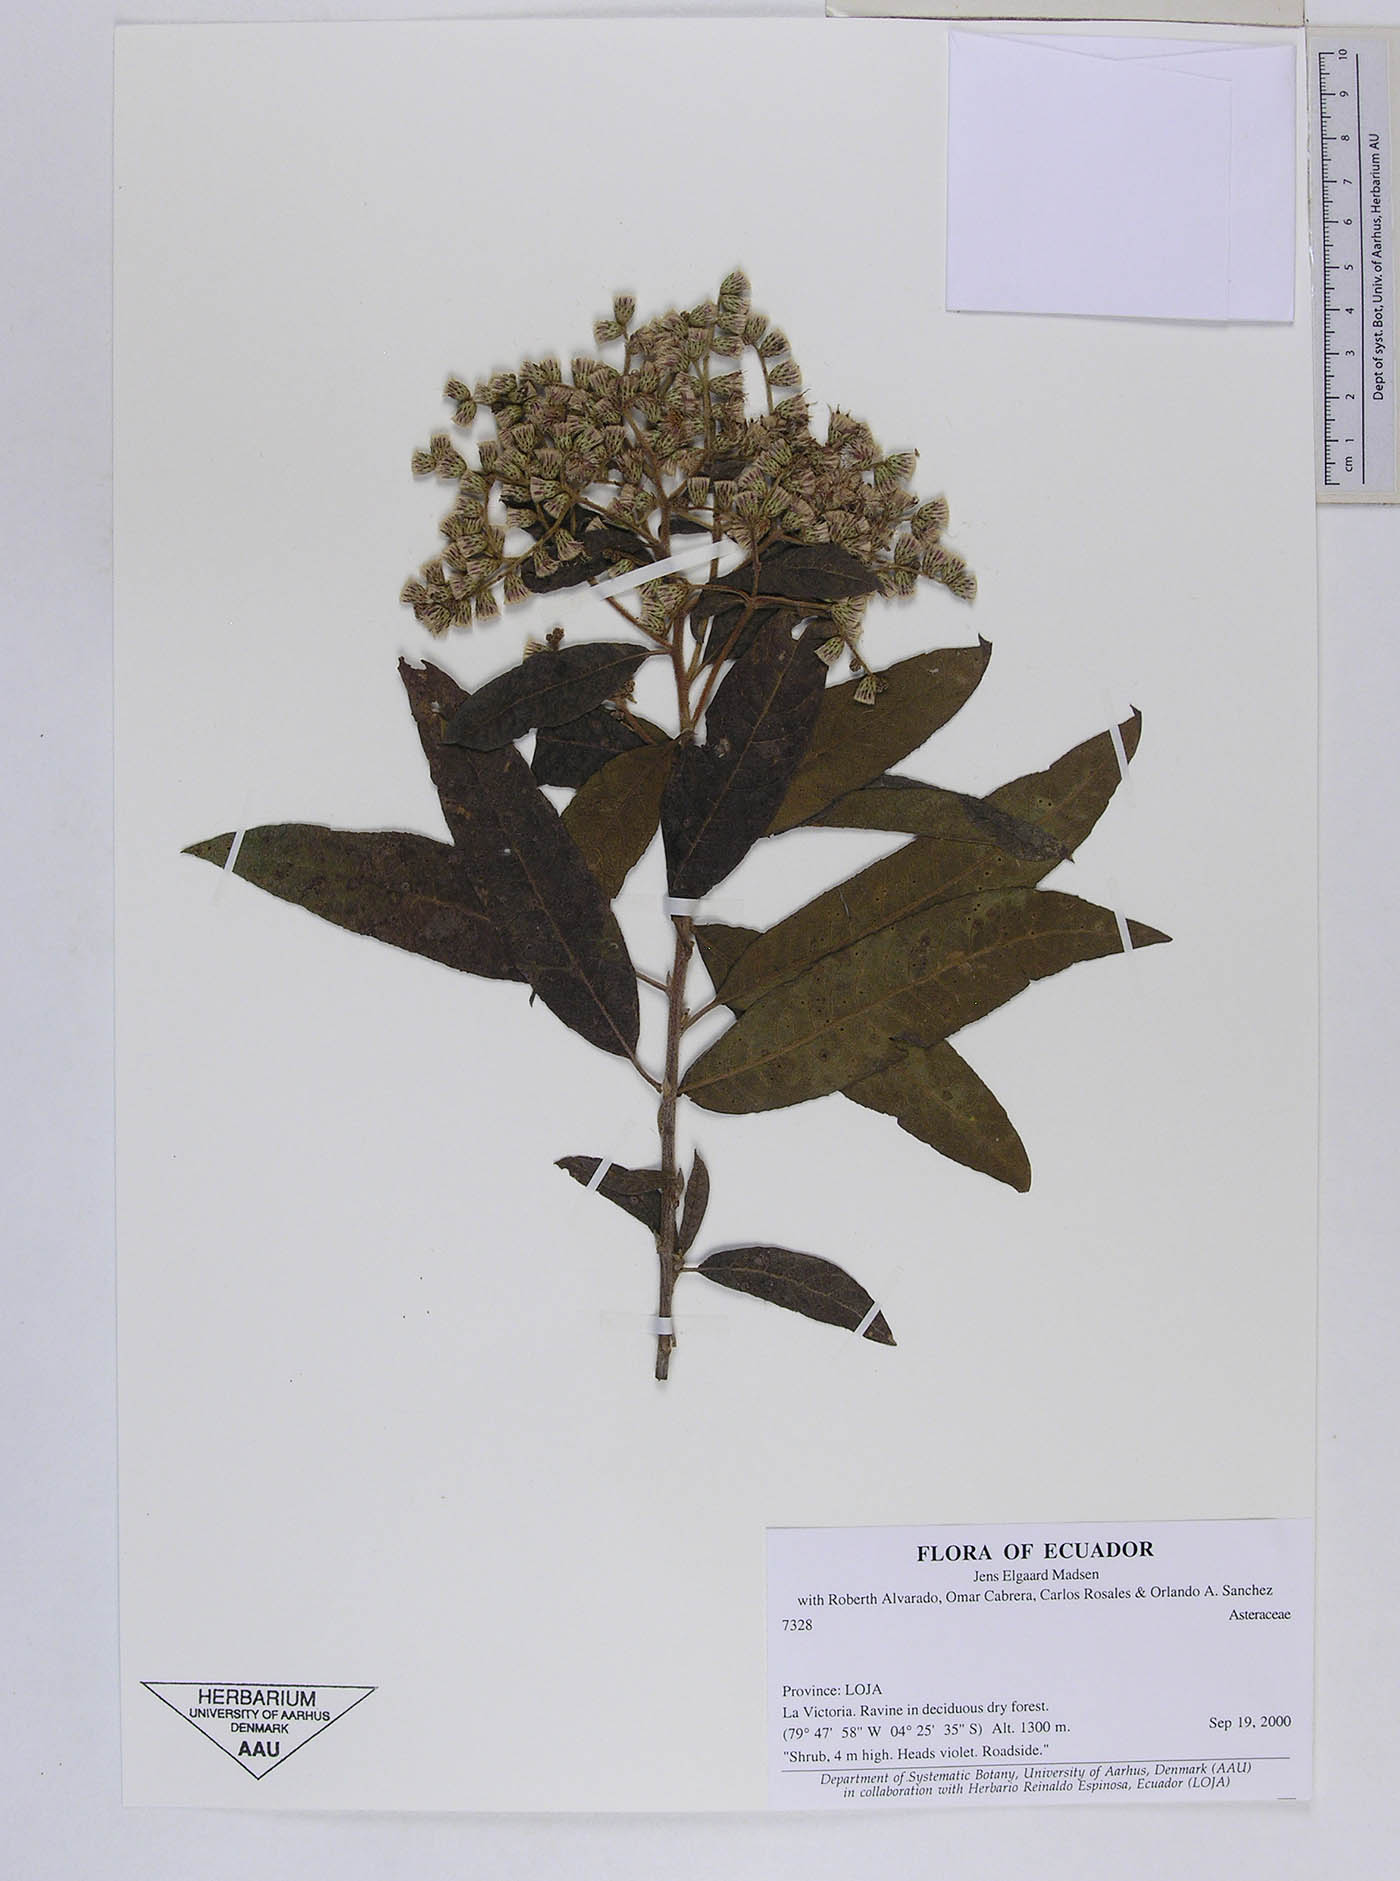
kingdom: Plantae
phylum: Tracheophyta
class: Magnoliopsida
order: Asterales
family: Asteraceae
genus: Vernonanthura
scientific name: Vernonanthura patens
